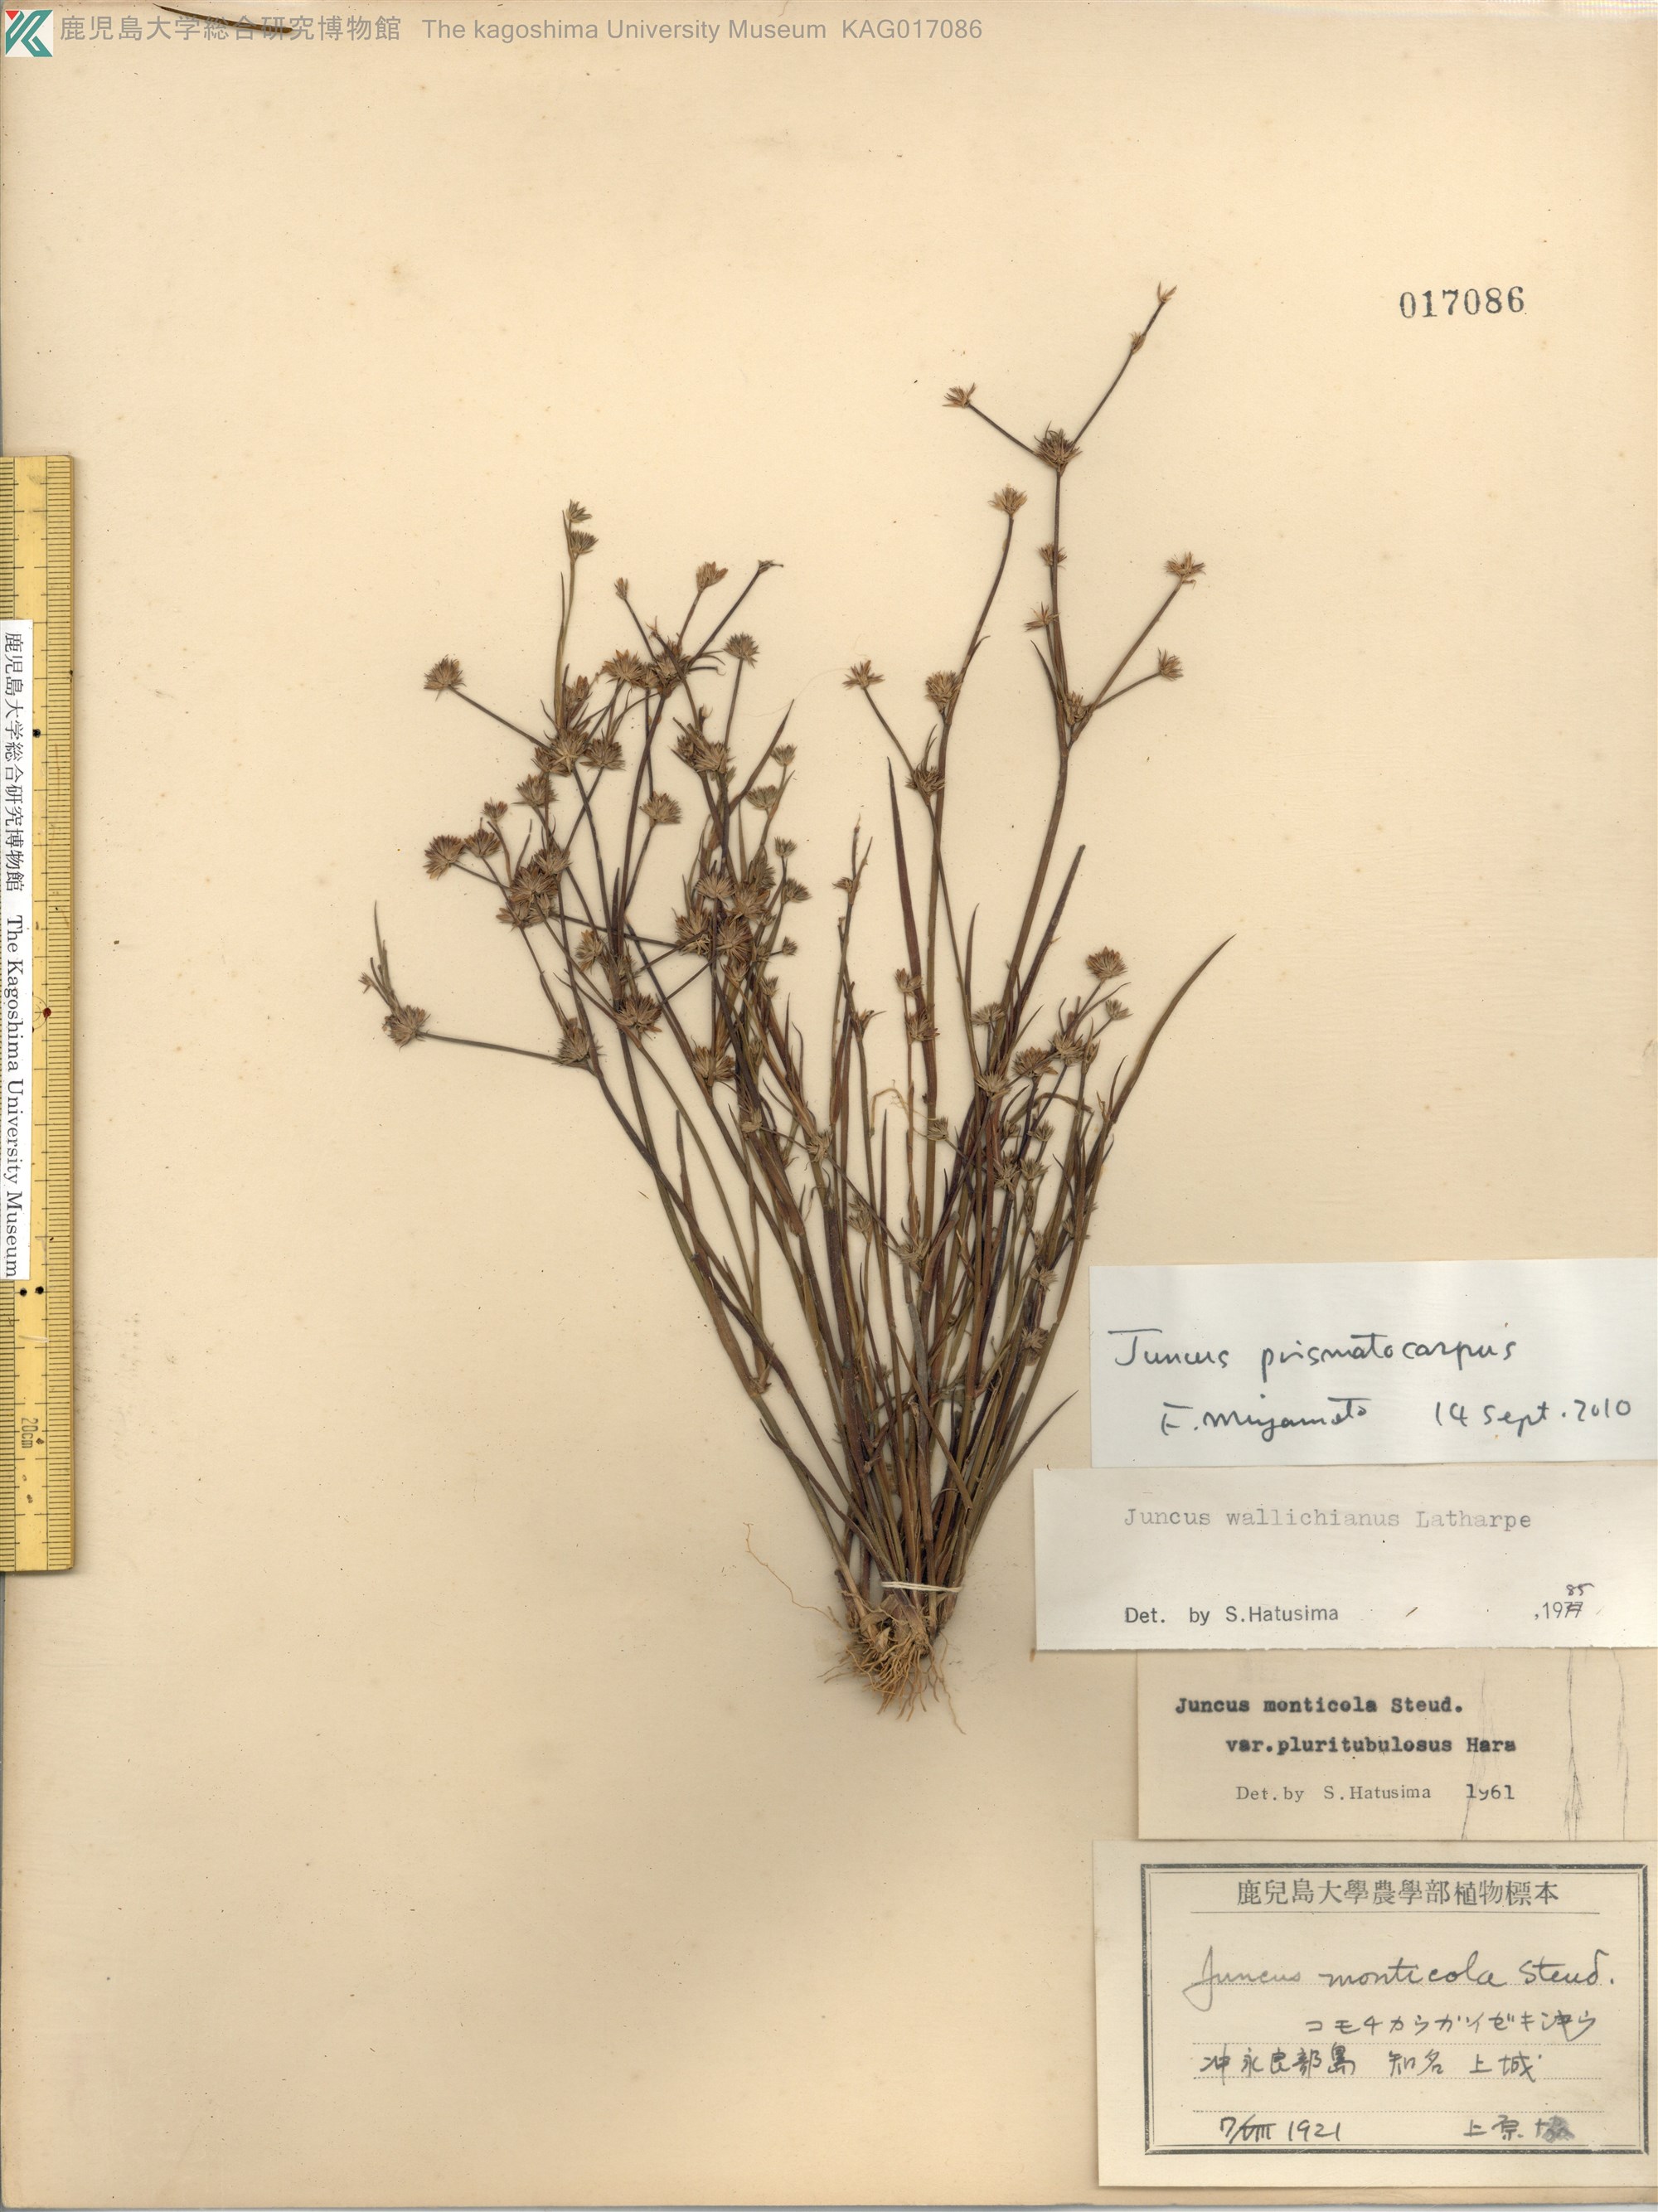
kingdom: Plantae
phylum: Tracheophyta
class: Liliopsida
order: Poales
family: Juncaceae
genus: Juncus
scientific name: Juncus prismatocarpus
